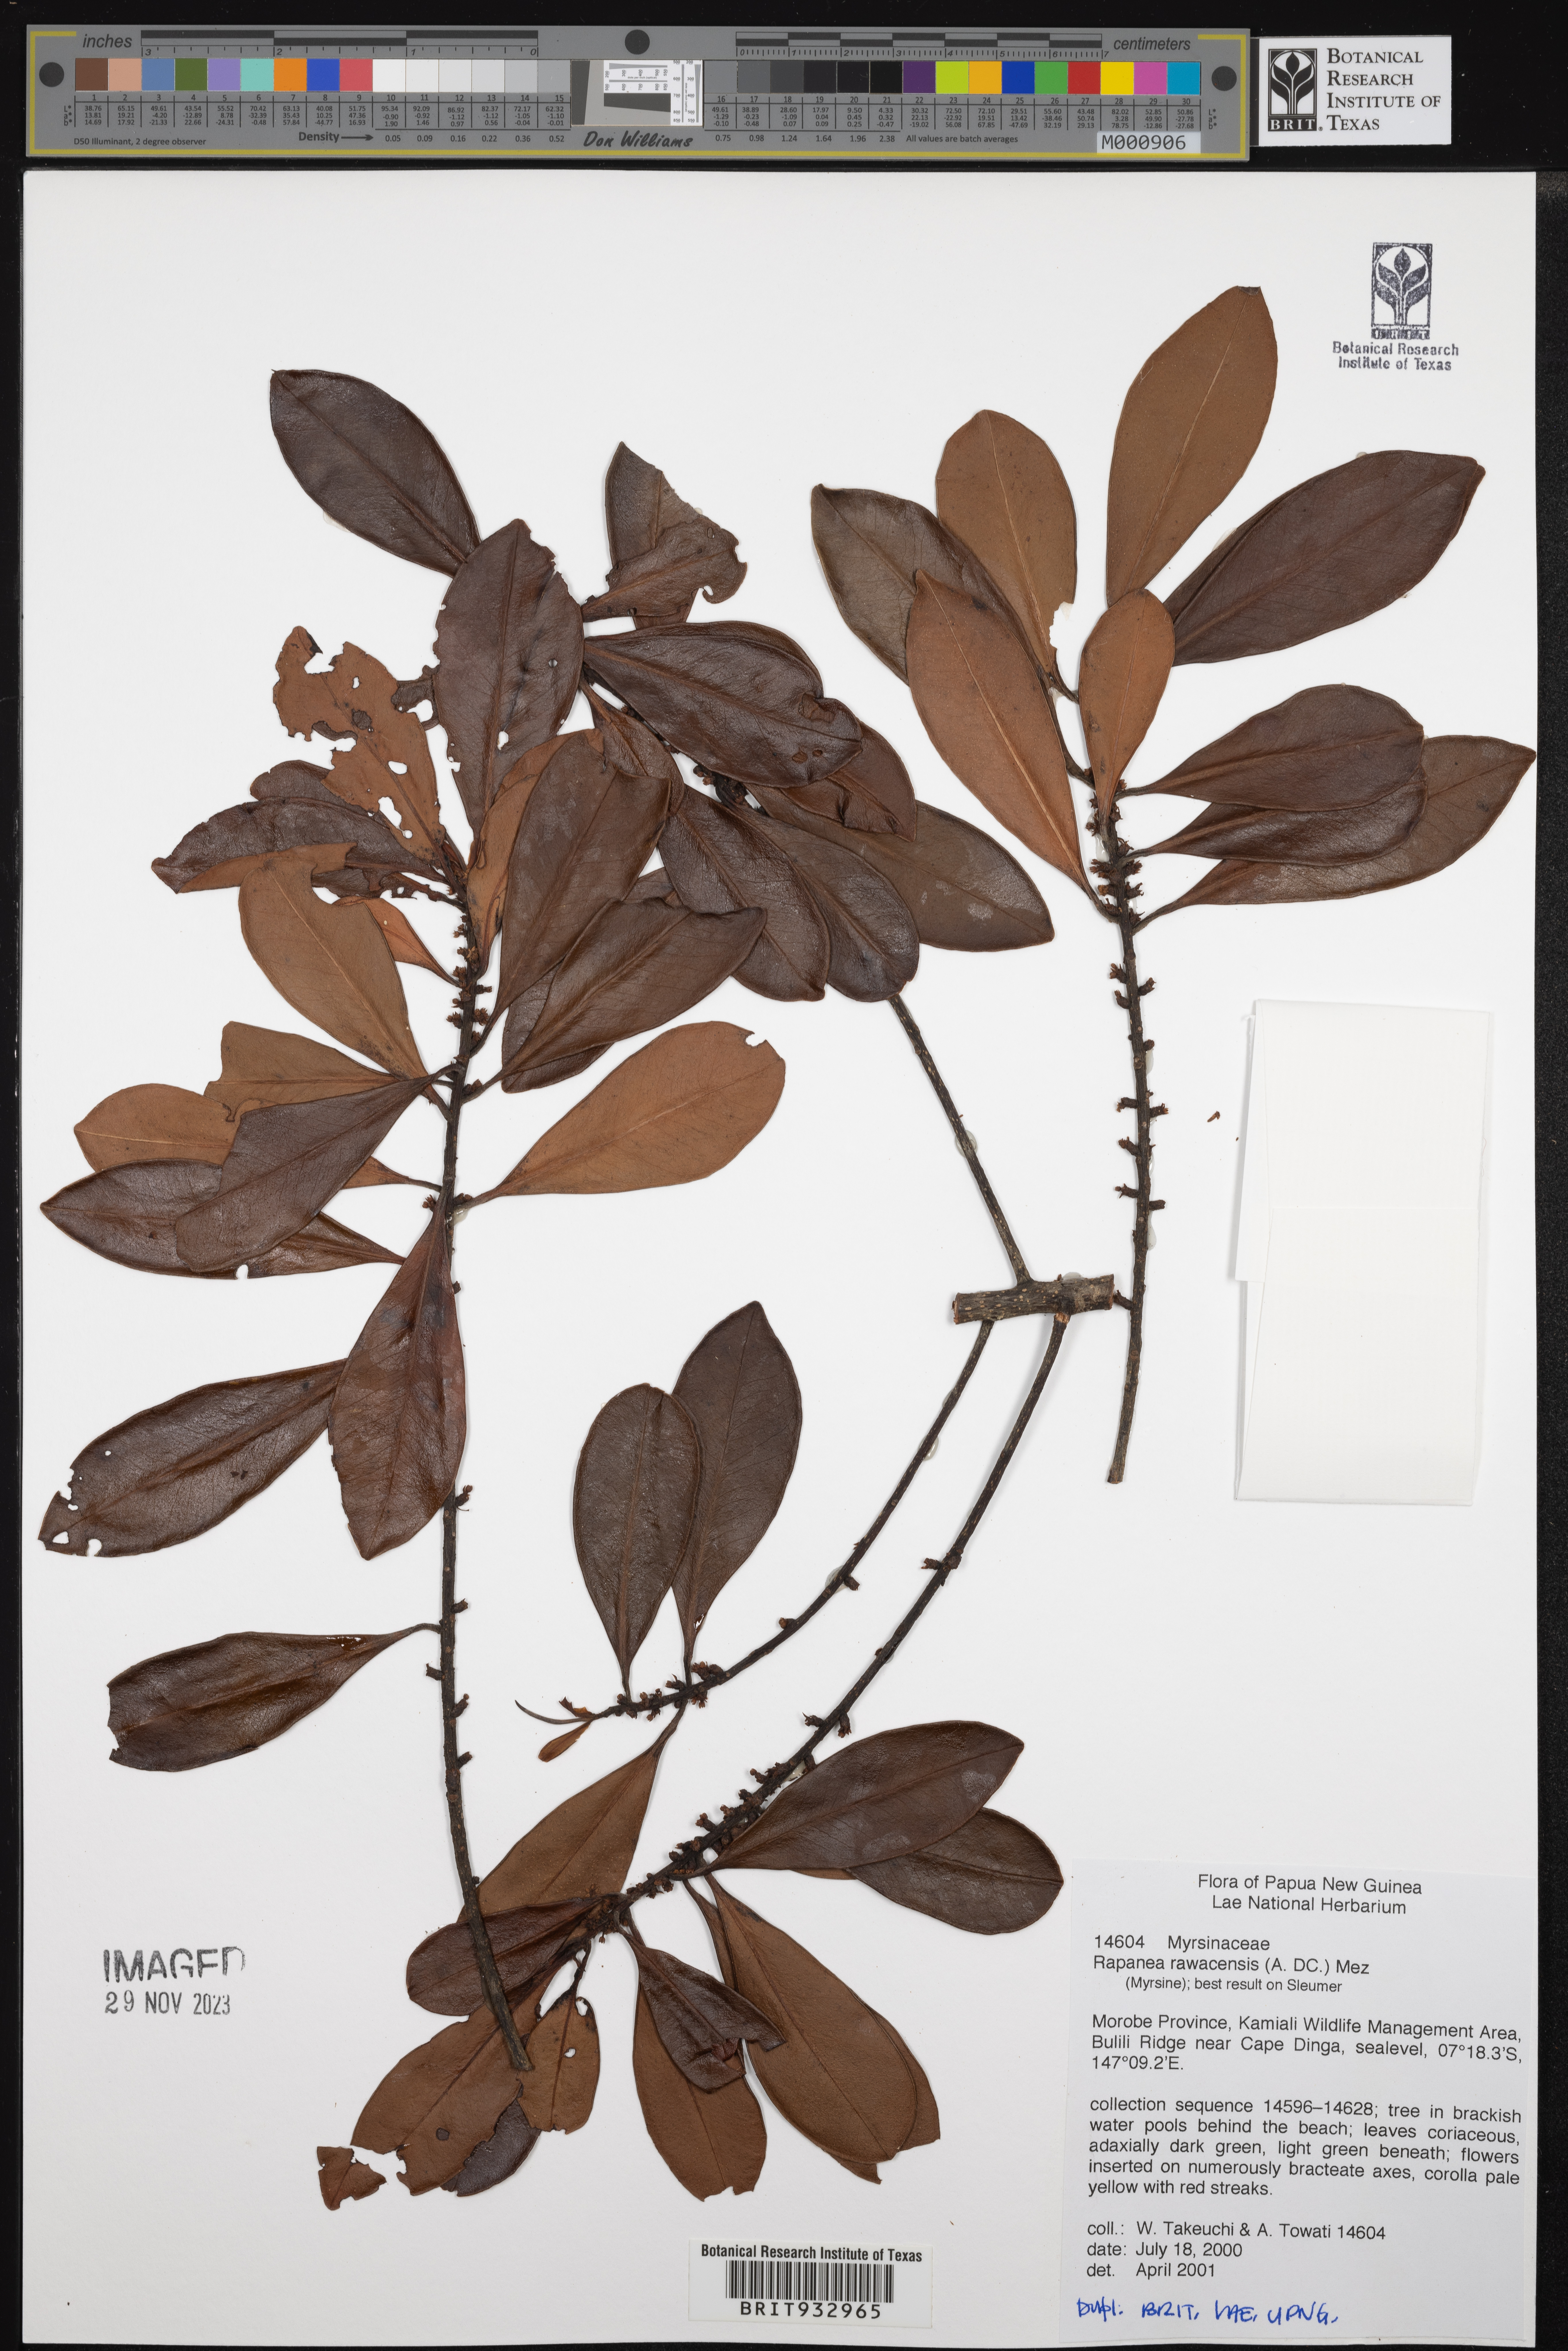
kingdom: Plantae
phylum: Tracheophyta
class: Magnoliopsida
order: Ericales
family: Primulaceae
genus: Myrsine
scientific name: Myrsine
